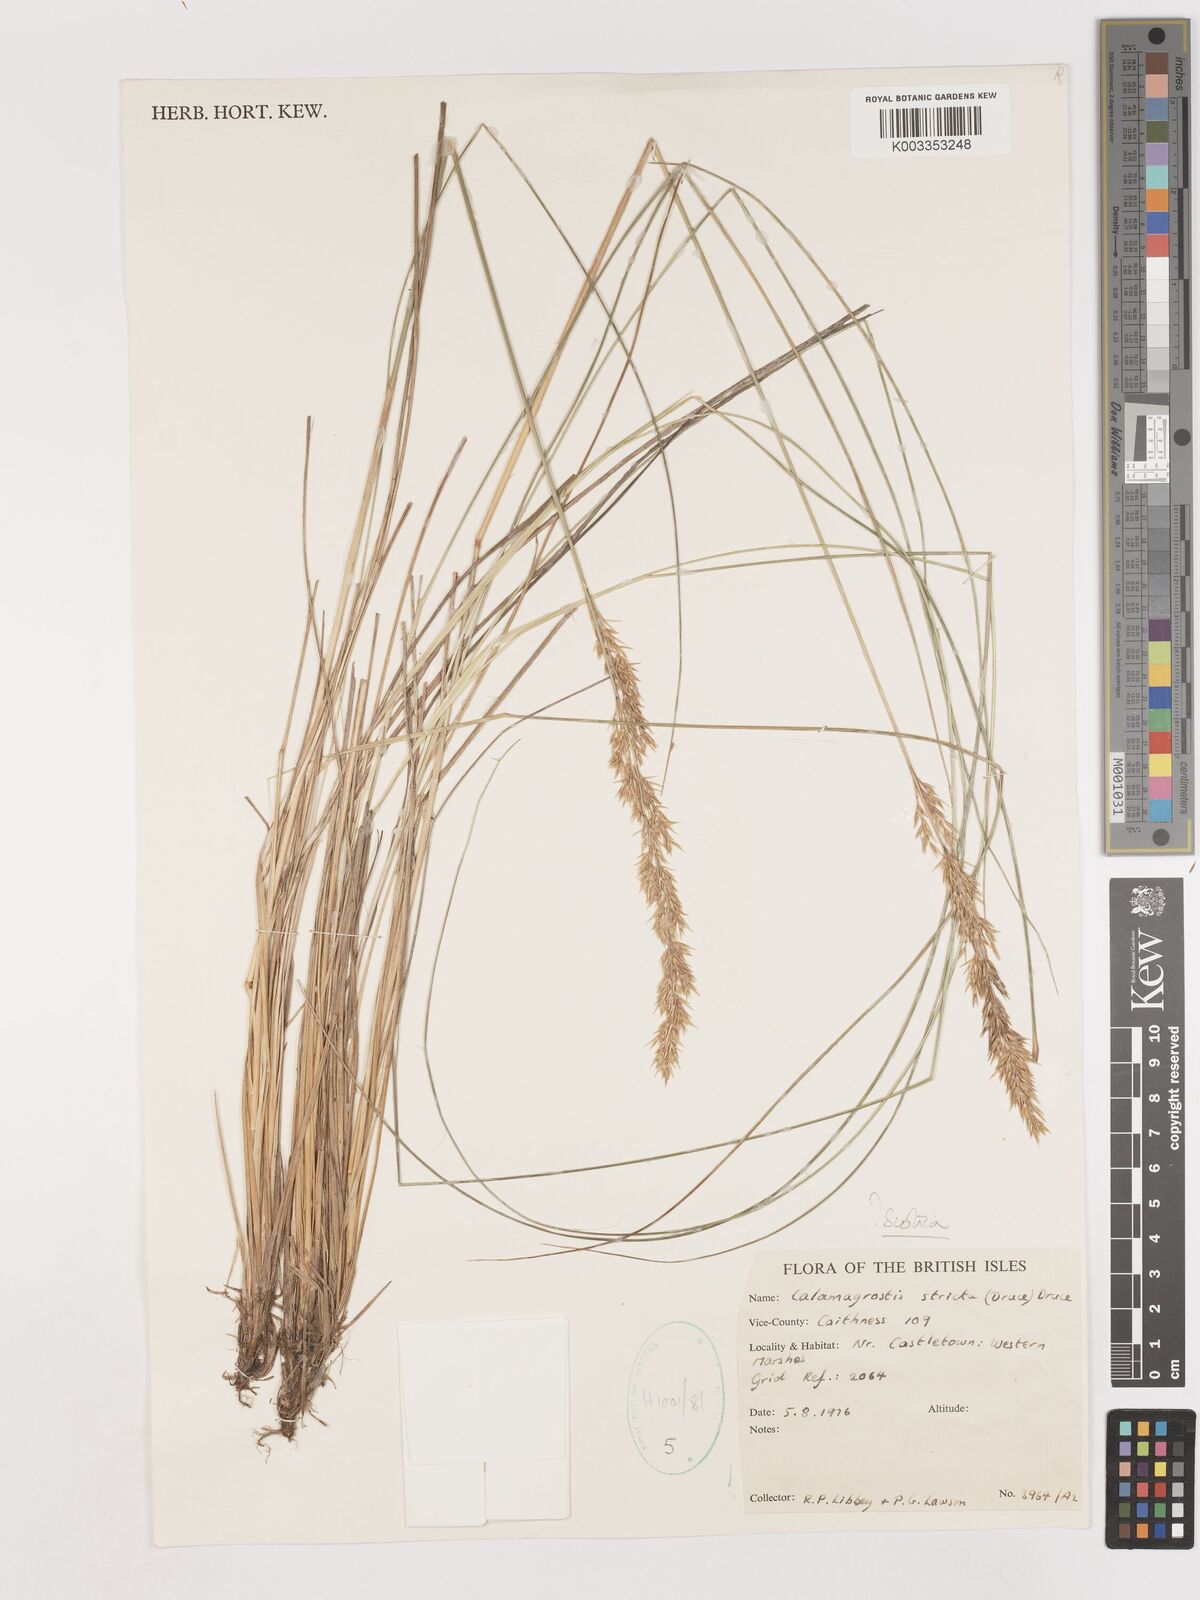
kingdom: Plantae
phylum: Tracheophyta
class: Liliopsida
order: Poales
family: Poaceae
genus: Calamagrostis
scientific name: Calamagrostis scotica
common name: Scottish small-reed
